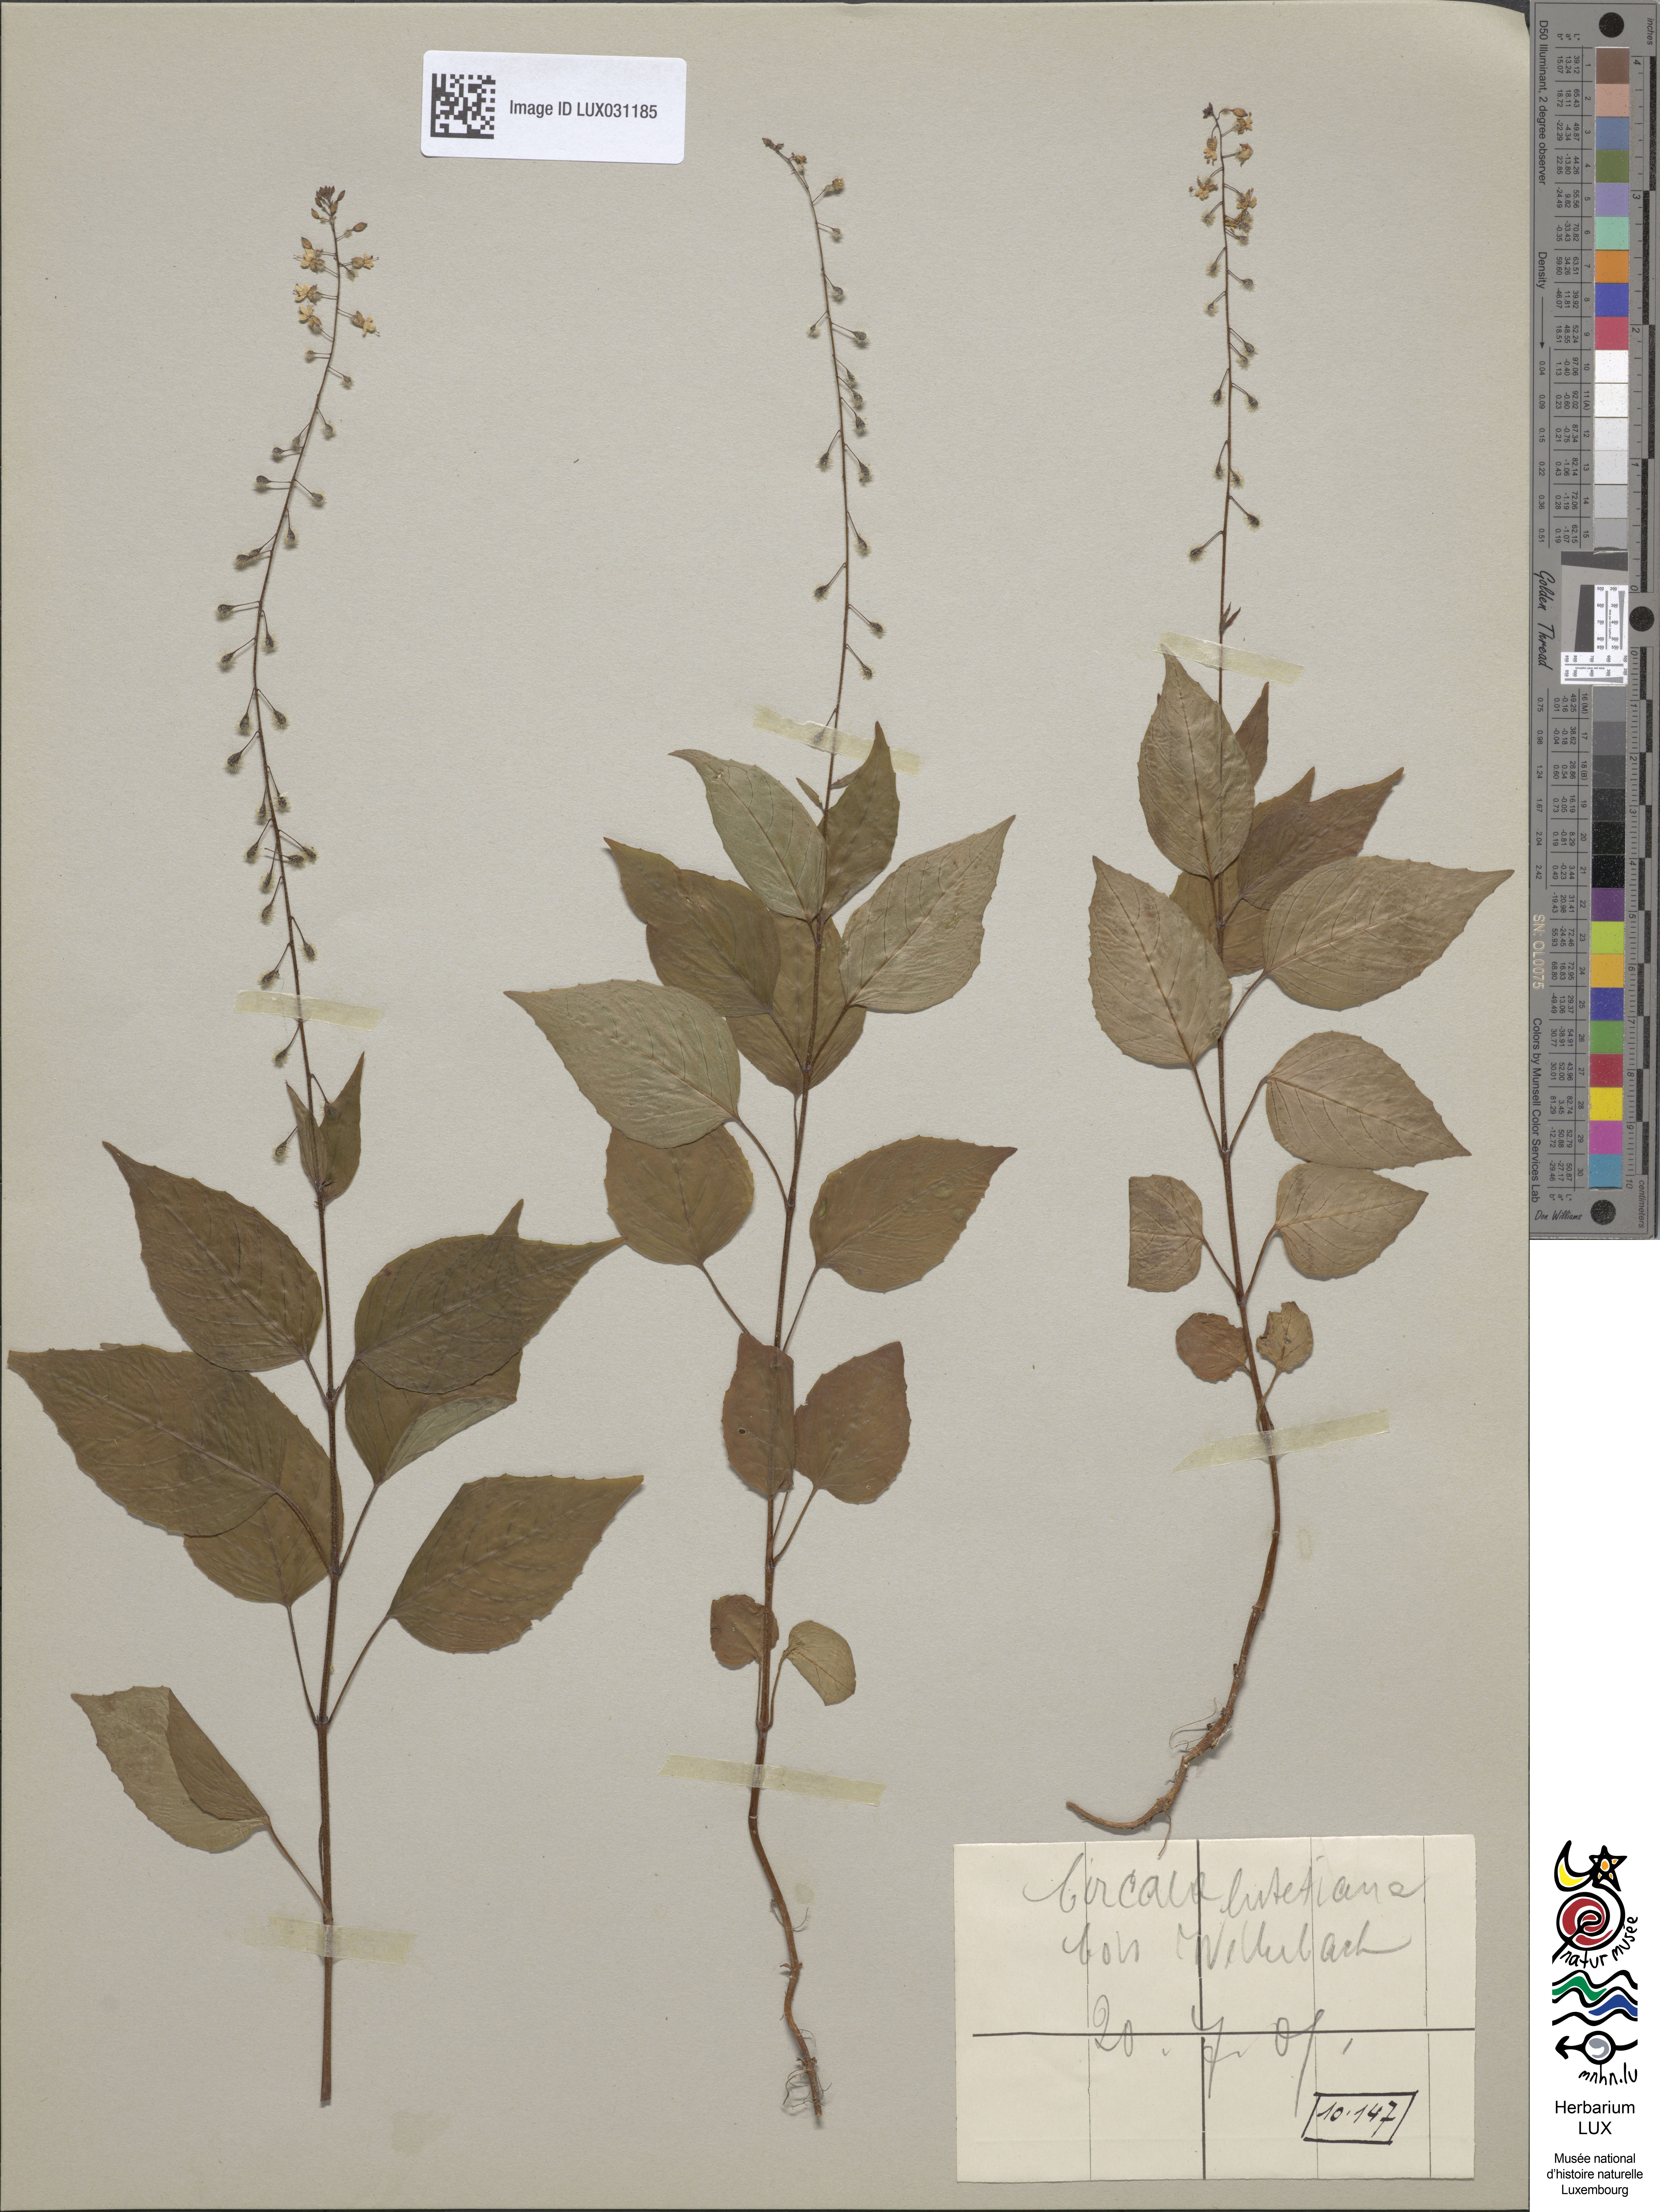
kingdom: Plantae
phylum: Tracheophyta
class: Magnoliopsida
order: Myrtales
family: Onagraceae
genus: Circaea
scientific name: Circaea lutetiana
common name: Enchanter's-nightshade
